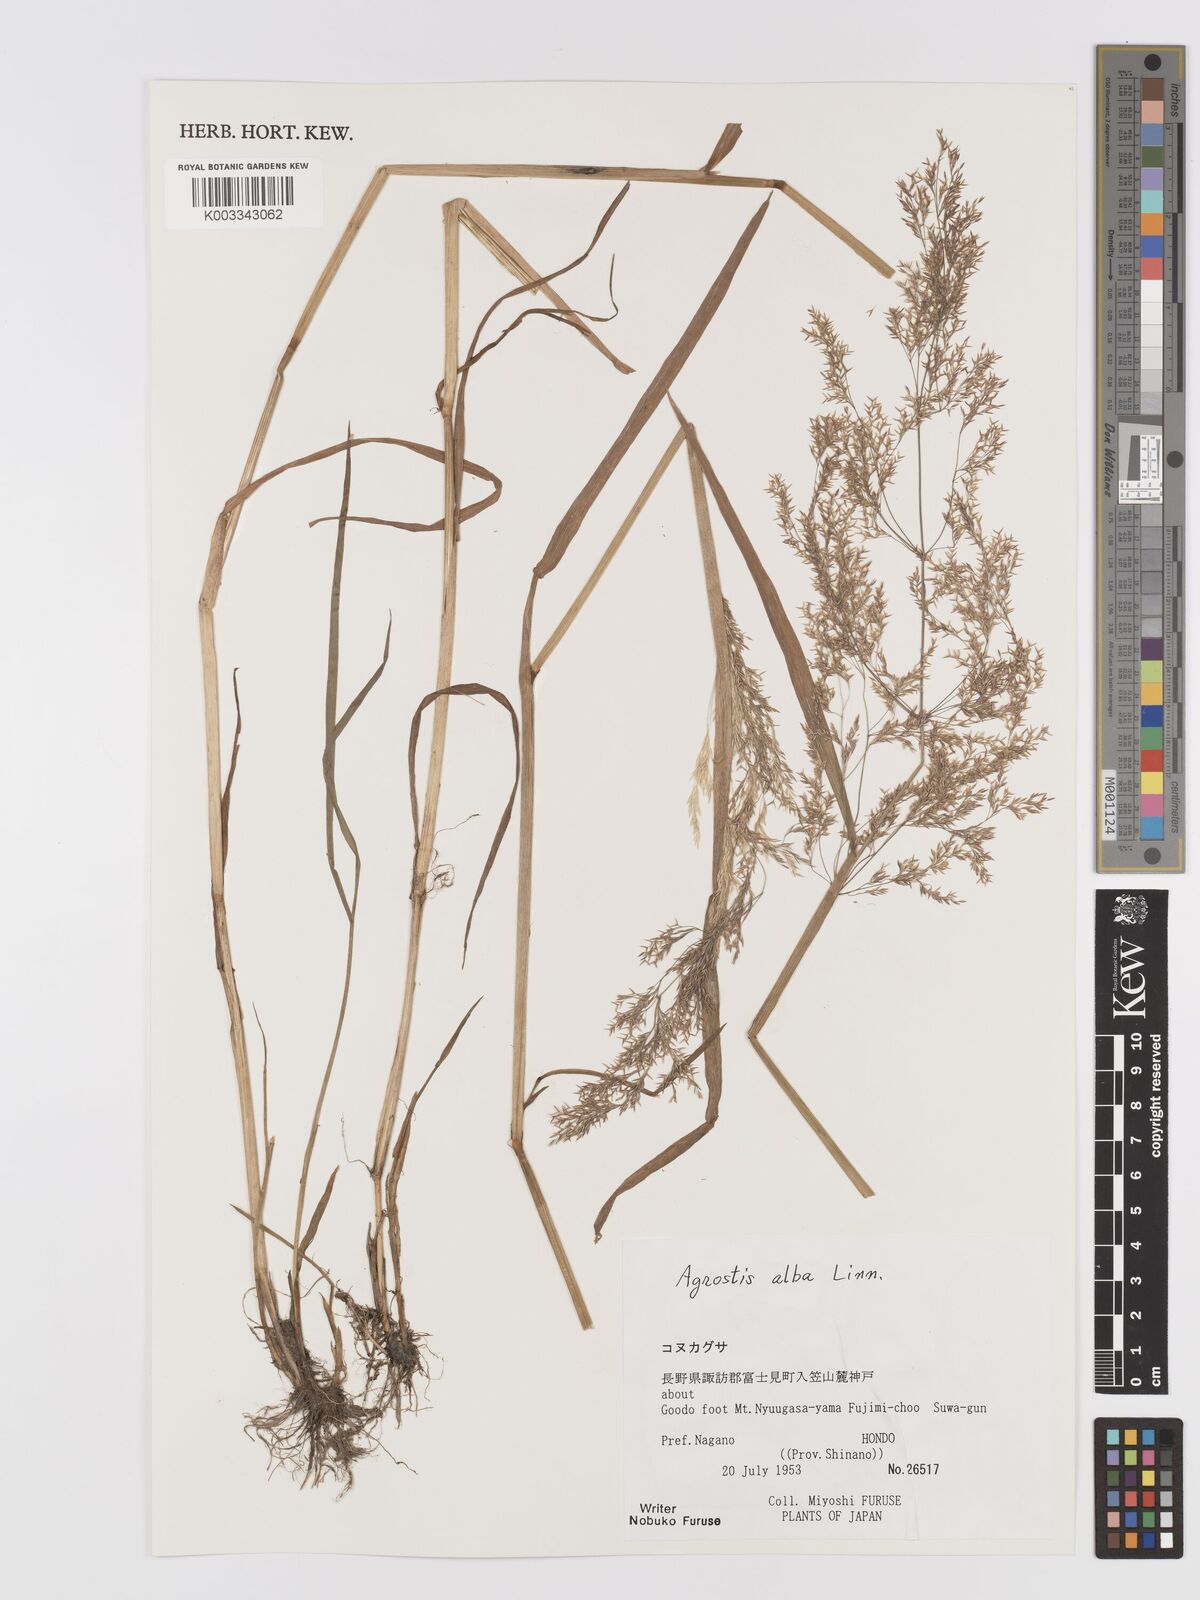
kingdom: Plantae
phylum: Tracheophyta
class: Liliopsida
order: Poales
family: Poaceae
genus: Agrostis
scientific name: Agrostis gigantea
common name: Black bent
